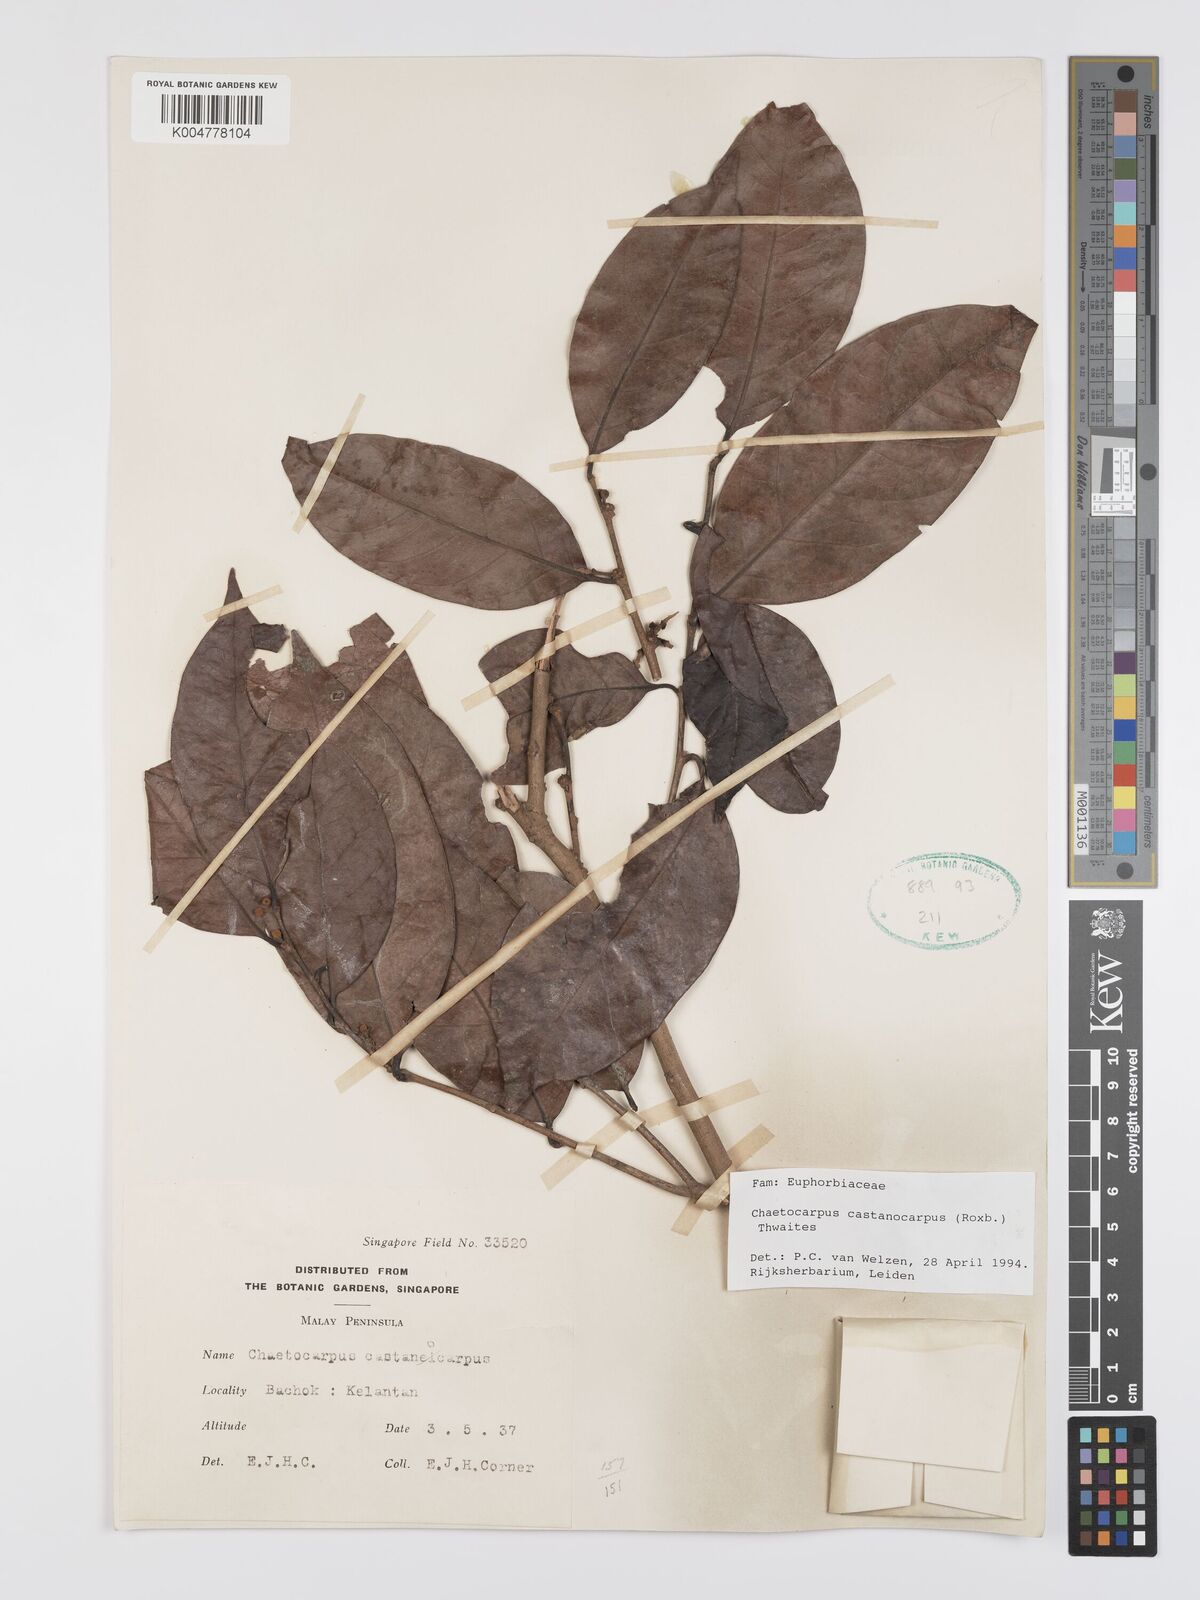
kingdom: Plantae
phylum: Tracheophyta
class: Magnoliopsida
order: Malpighiales
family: Peraceae
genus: Chaetocarpus
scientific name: Chaetocarpus castanocarpus
